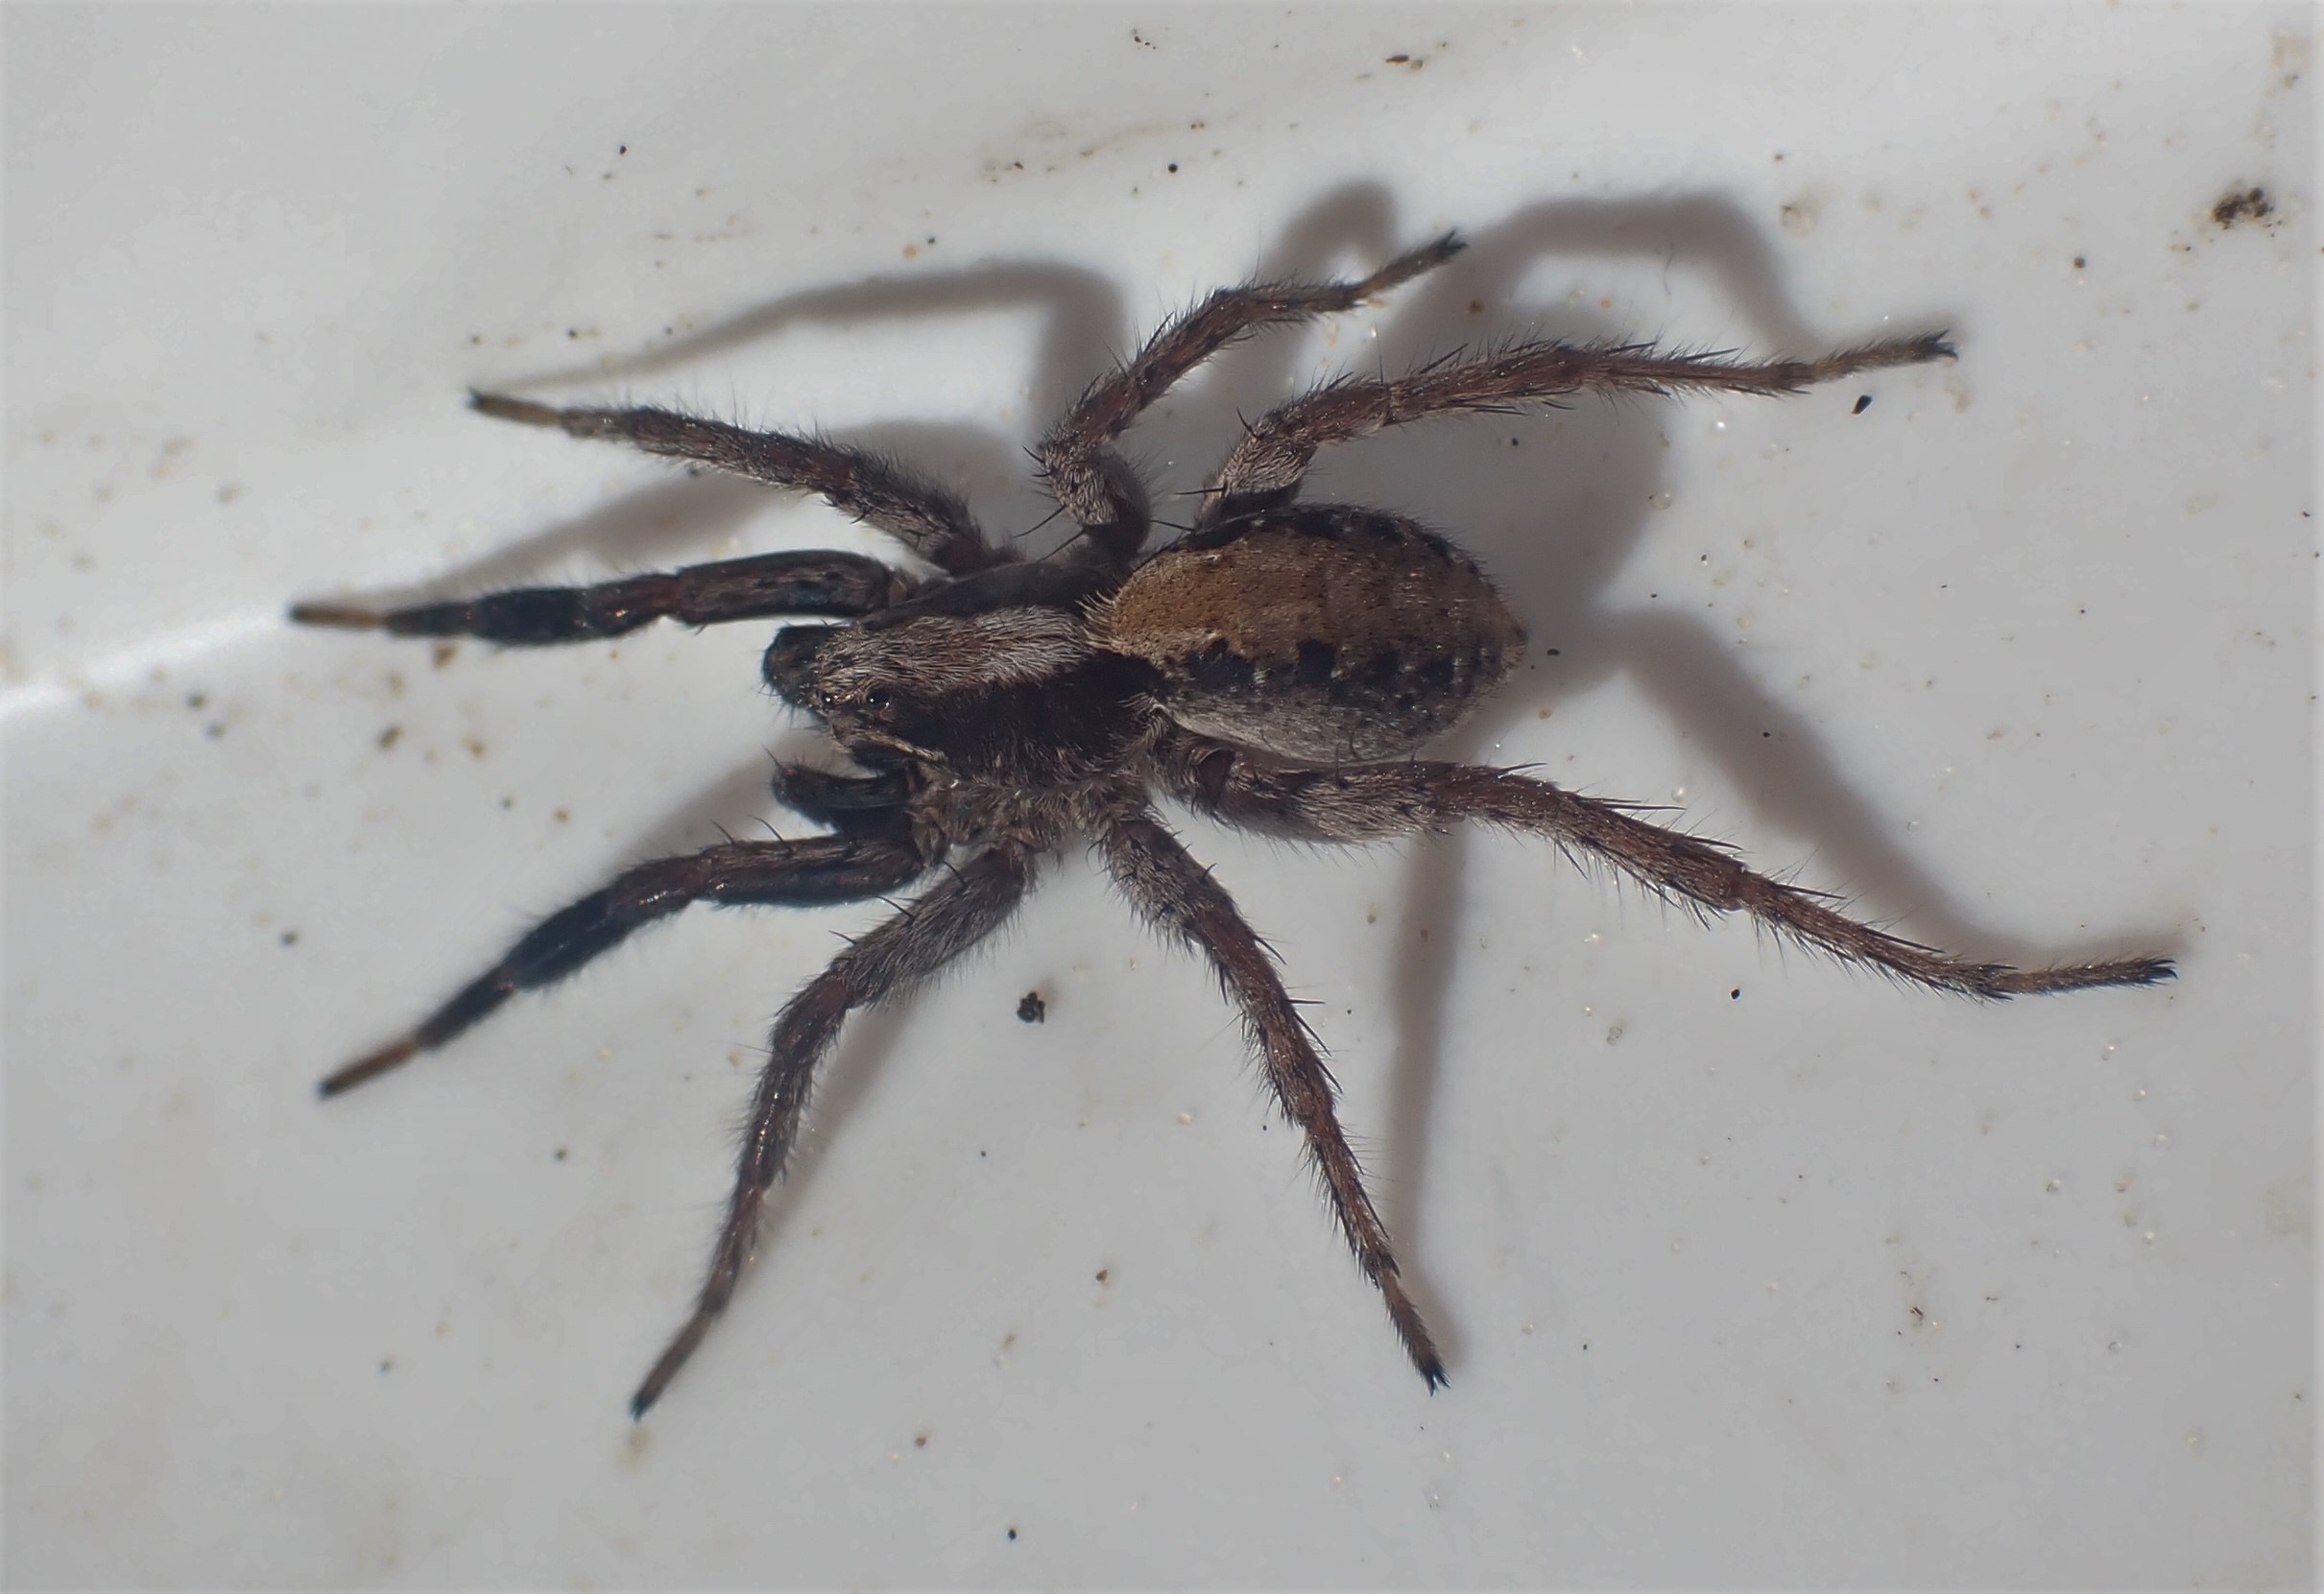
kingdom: Animalia
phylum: Arthropoda
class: Arachnida
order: Araneae
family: Lycosidae
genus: Alopecosa
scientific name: Alopecosa barbipes
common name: Klitkæmpejæger
